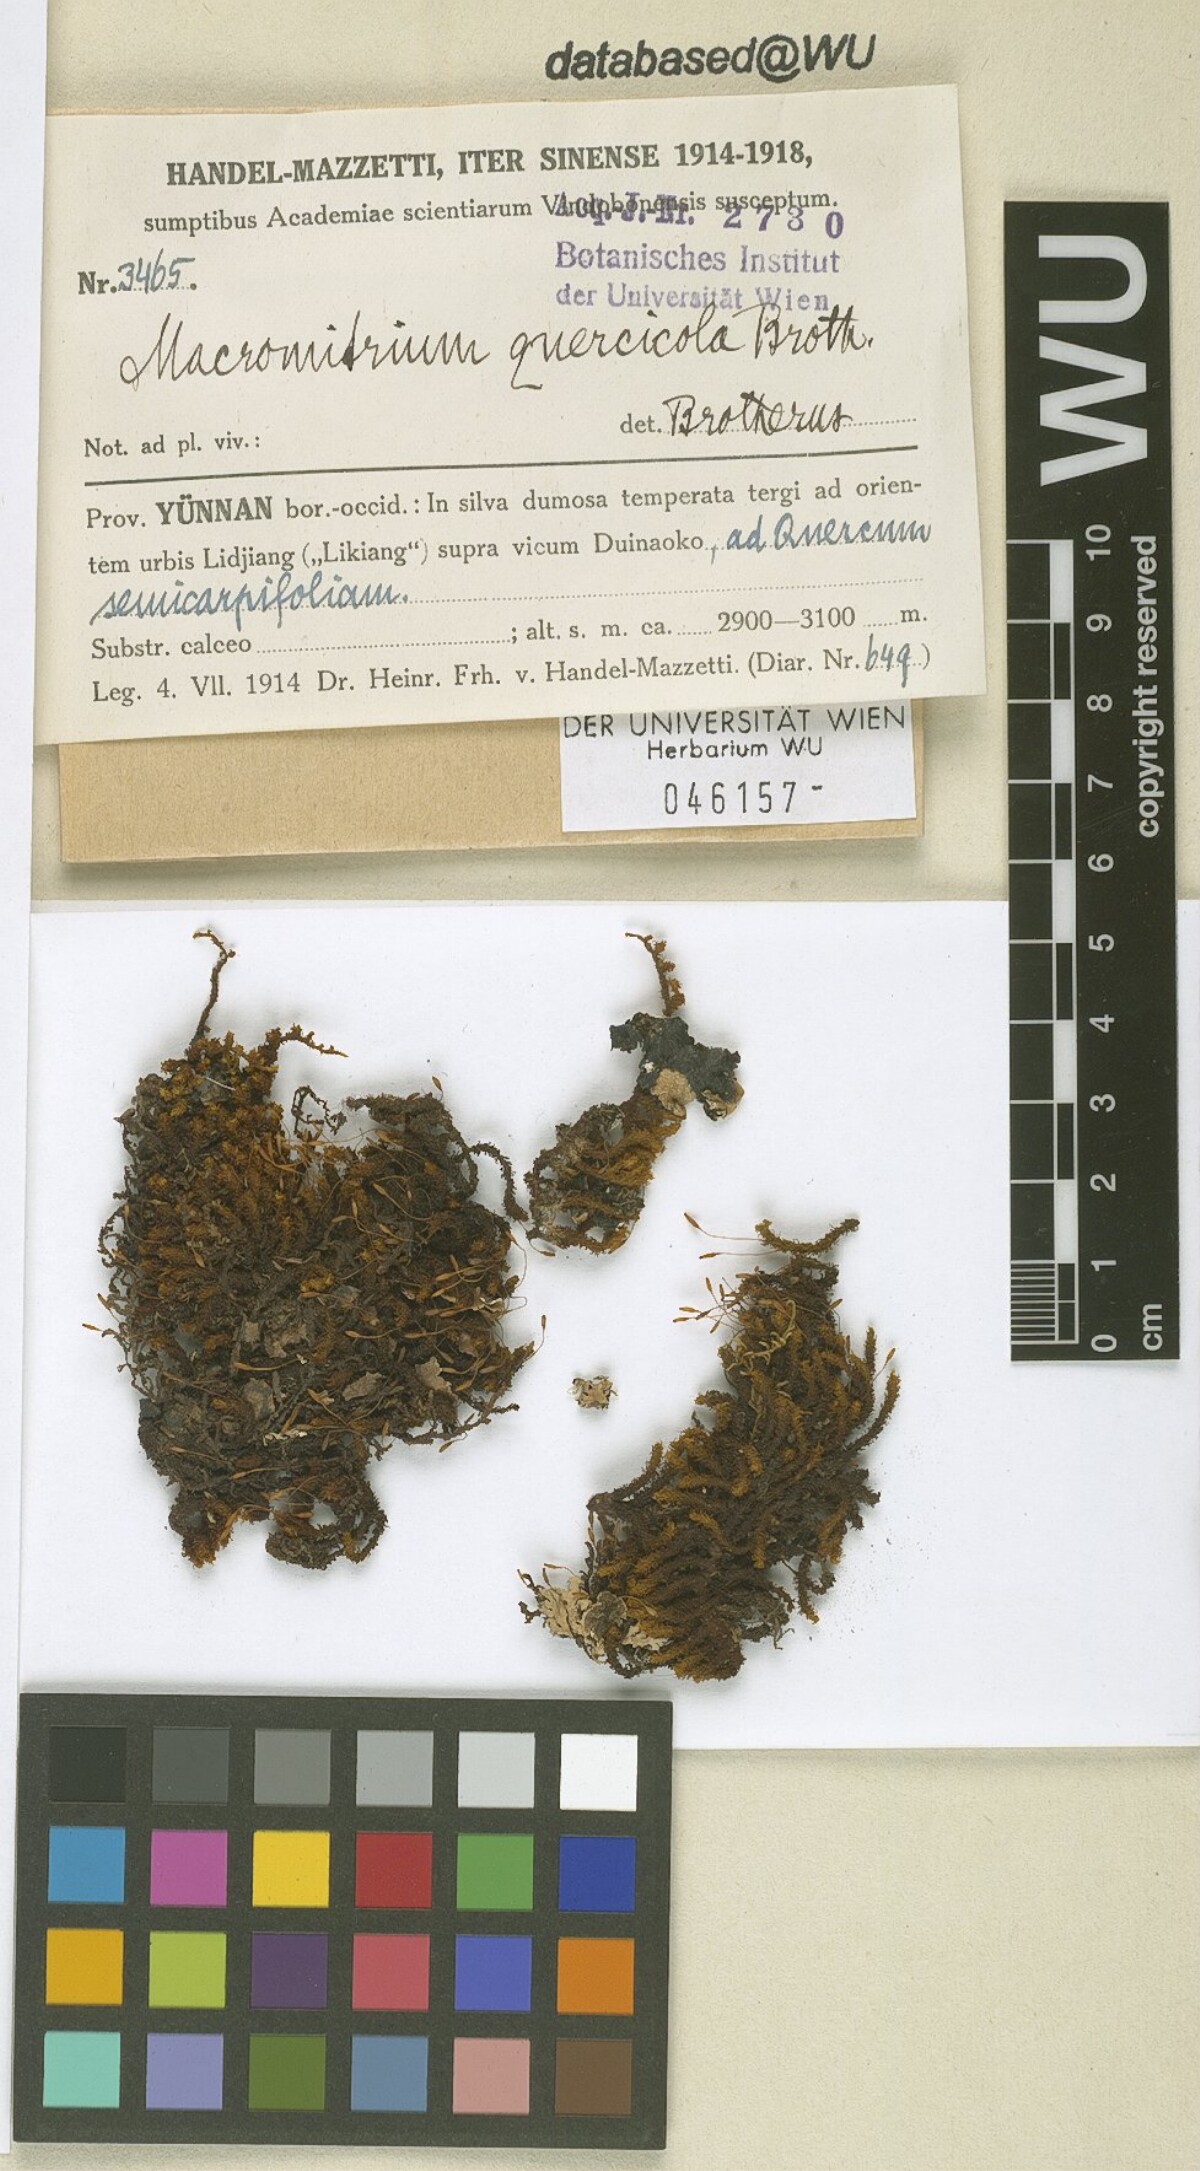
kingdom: Plantae
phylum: Bryophyta
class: Bryopsida
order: Orthotrichales
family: Orthotrichaceae
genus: Macromitrium
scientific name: Macromitrium ferriei
